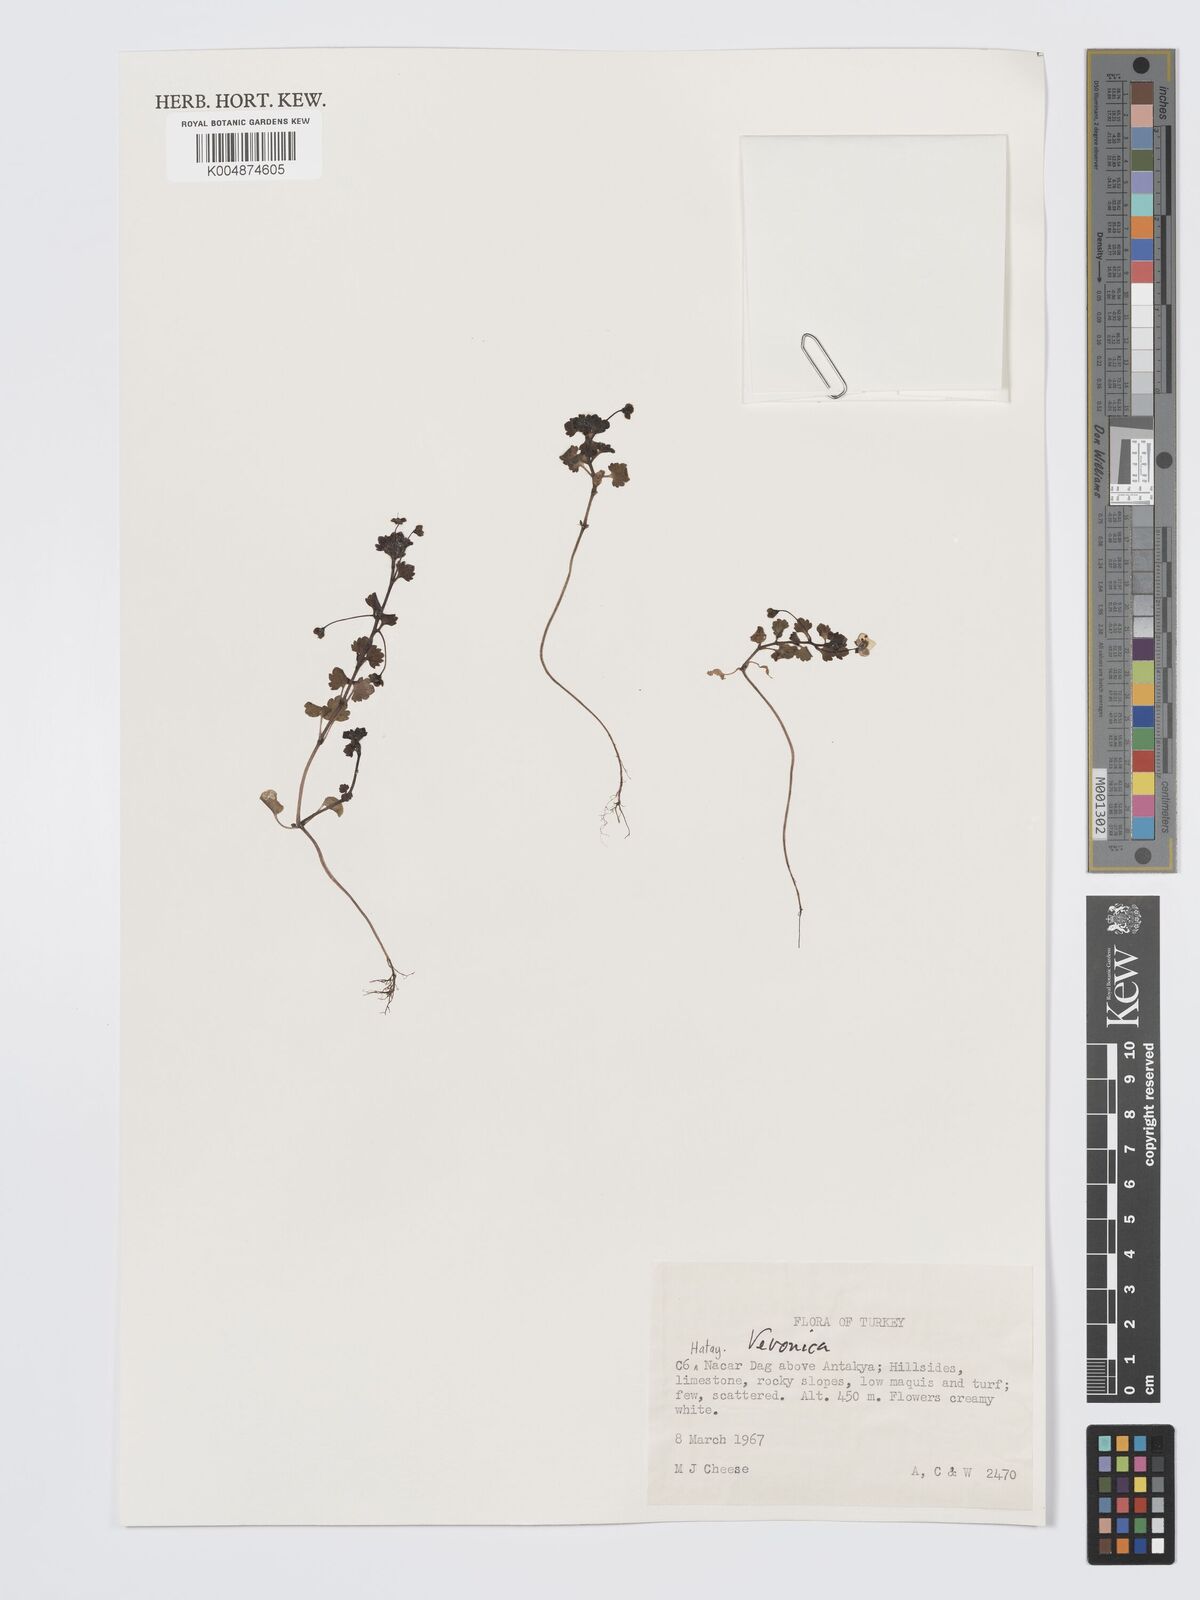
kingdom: Plantae
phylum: Tracheophyta
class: Magnoliopsida
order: Lamiales
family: Plantaginaceae
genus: Veronica
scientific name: Veronica
